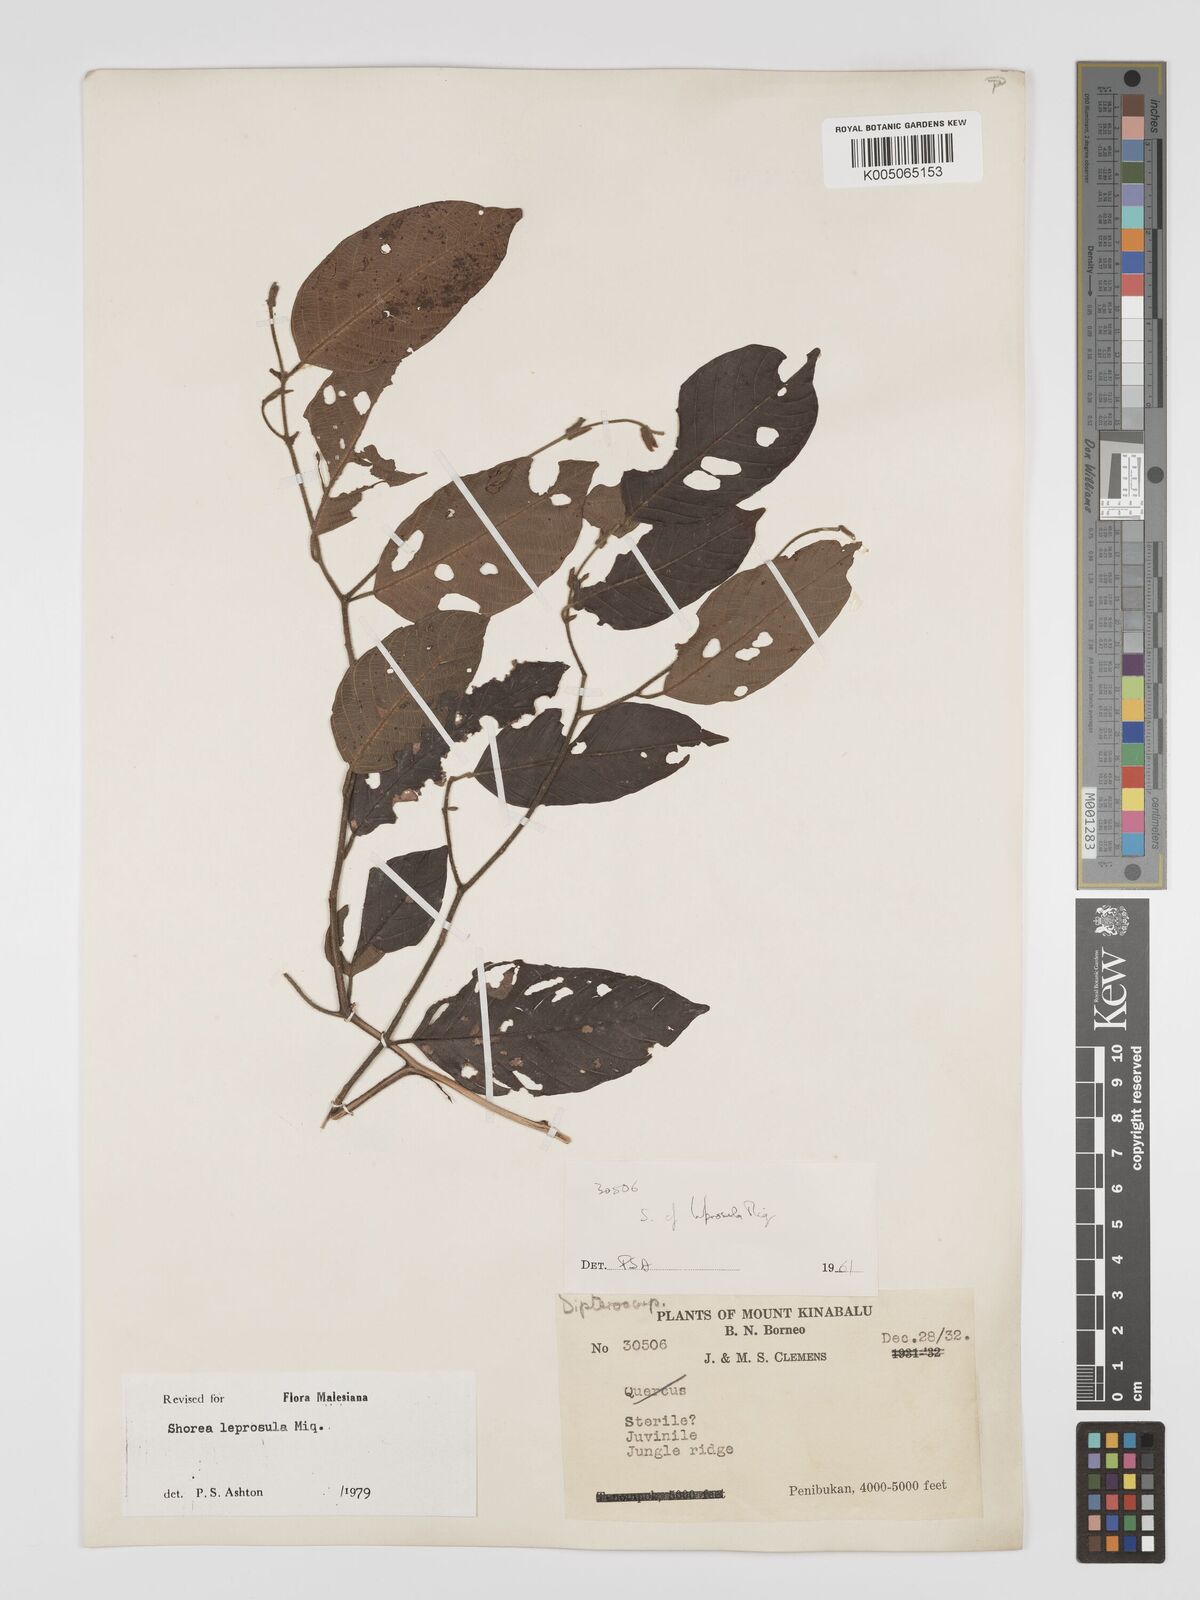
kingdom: Plantae
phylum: Tracheophyta
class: Magnoliopsida
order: Malvales
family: Dipterocarpaceae
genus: Shorea
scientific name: Shorea leprosula
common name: Light red meranti
